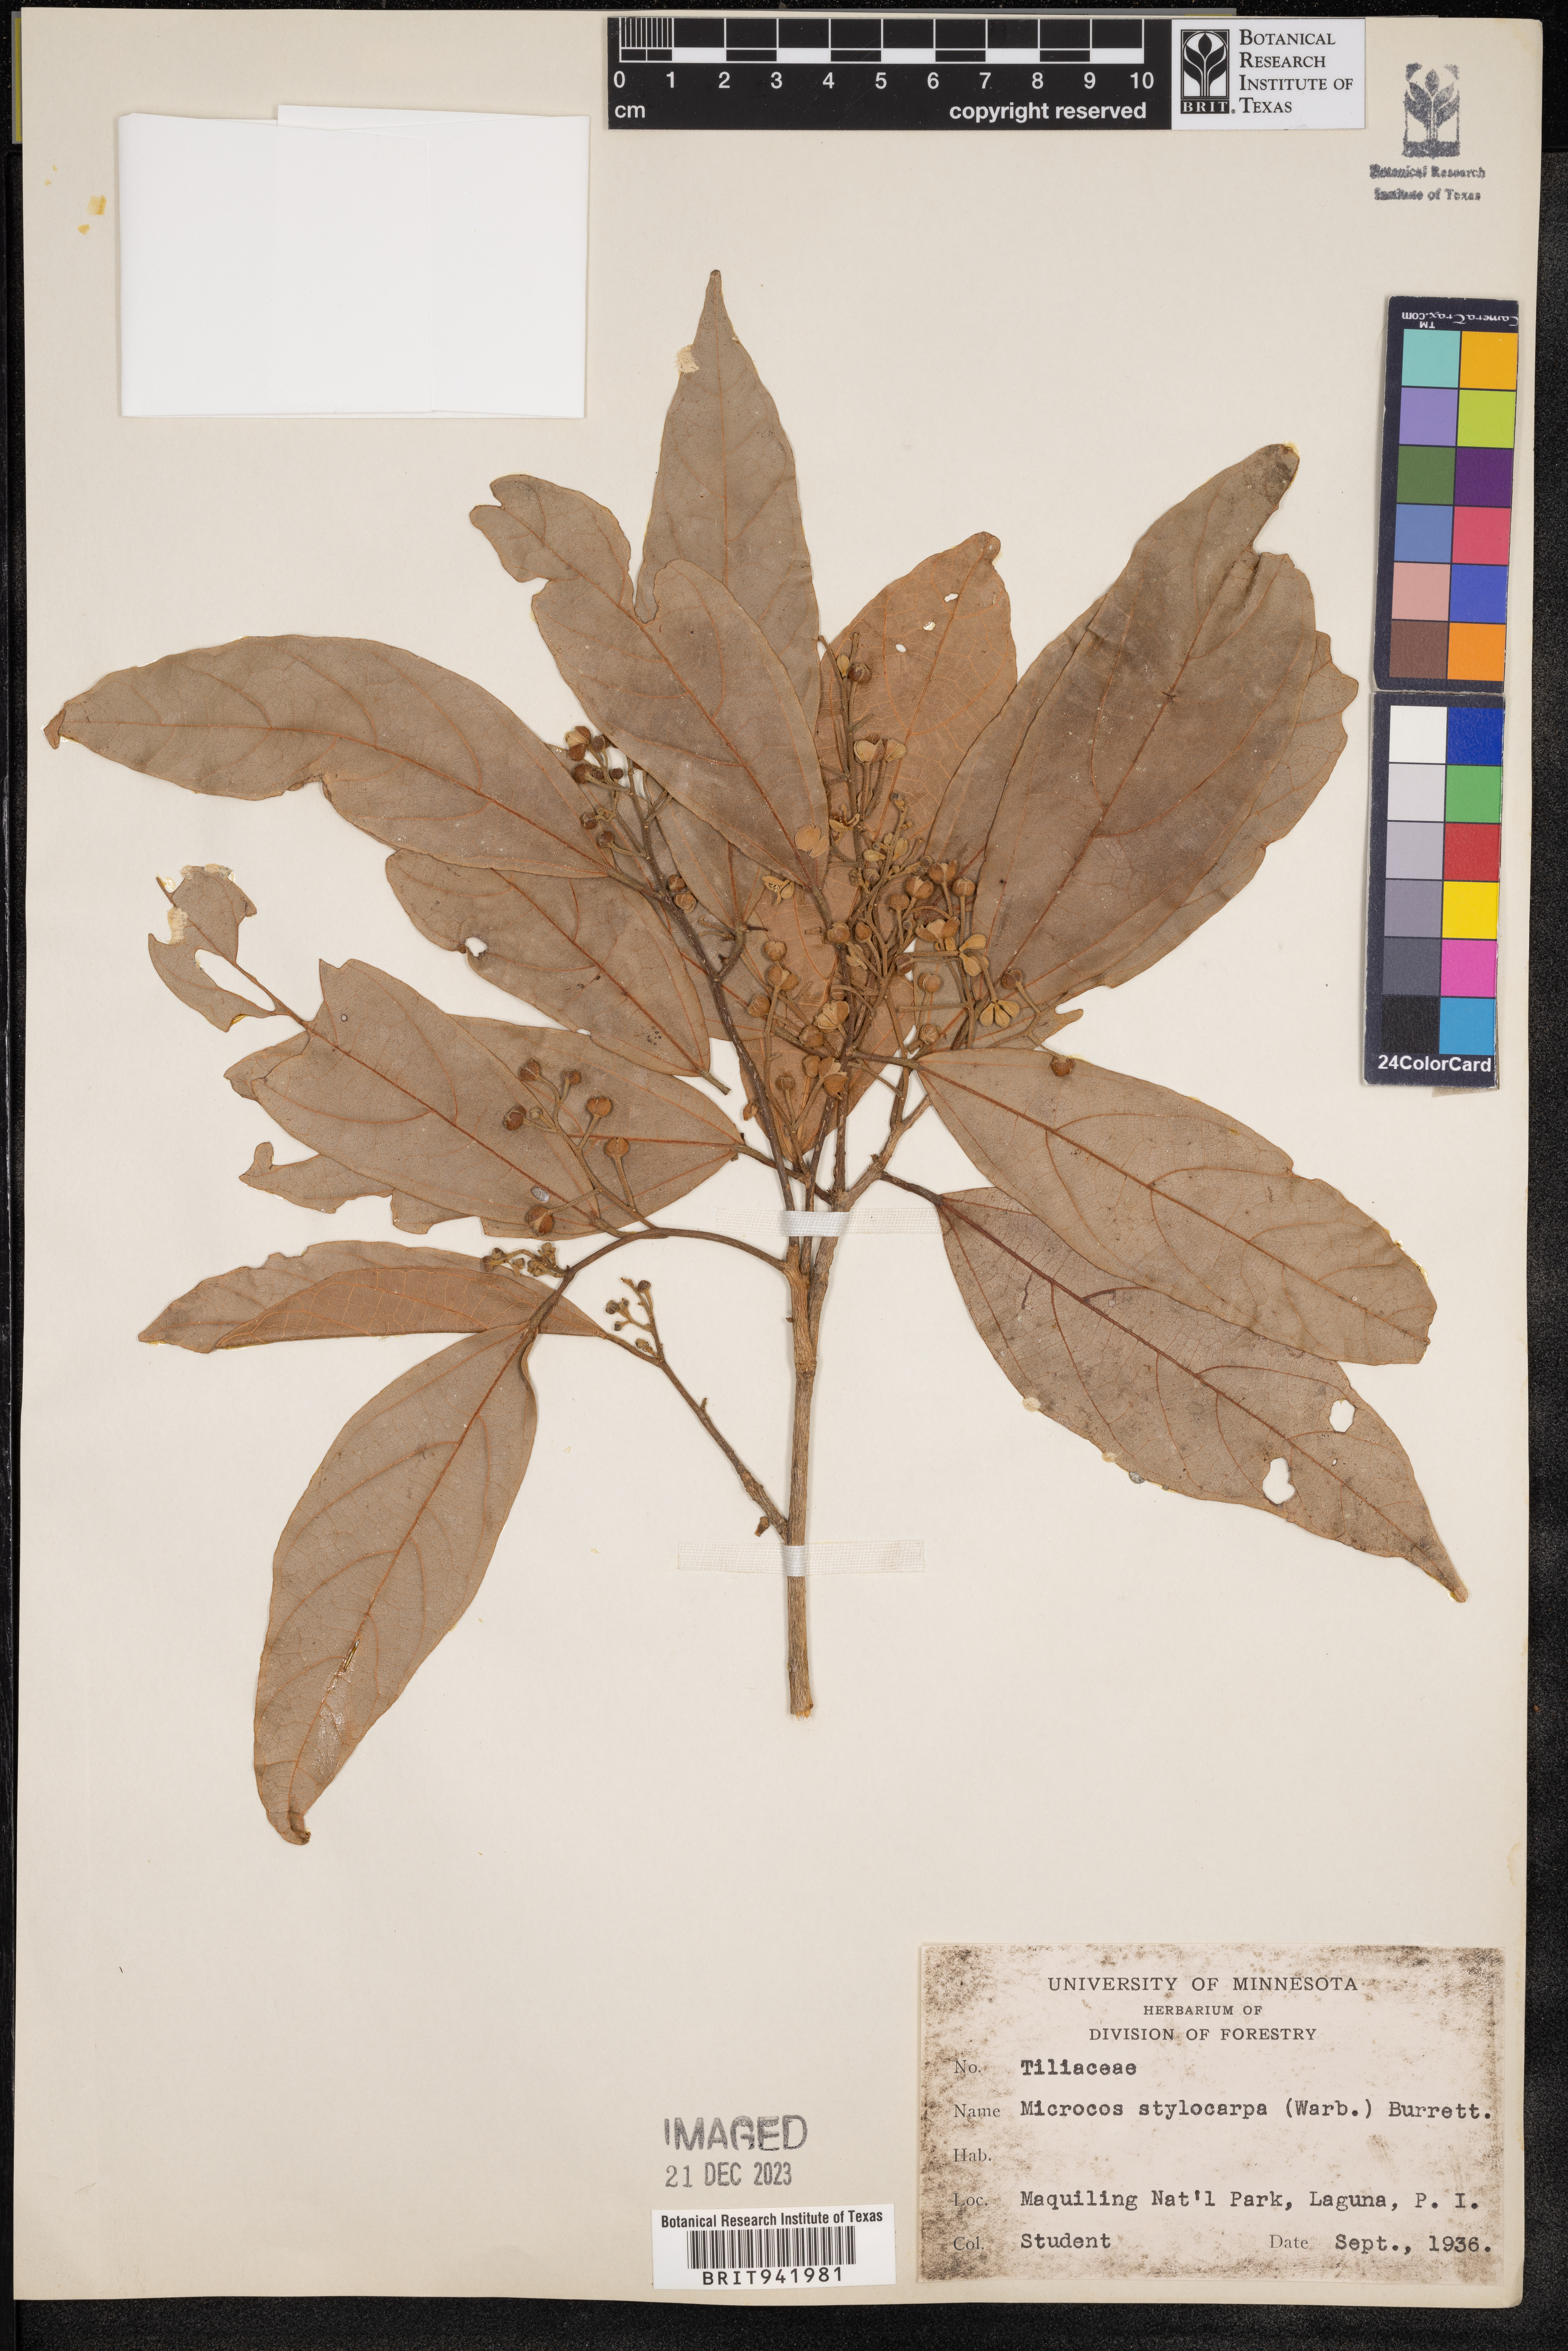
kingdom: Plantae
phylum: Tracheophyta
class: Magnoliopsida
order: Malvales
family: Malvaceae
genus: Microcos
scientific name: Microcos
